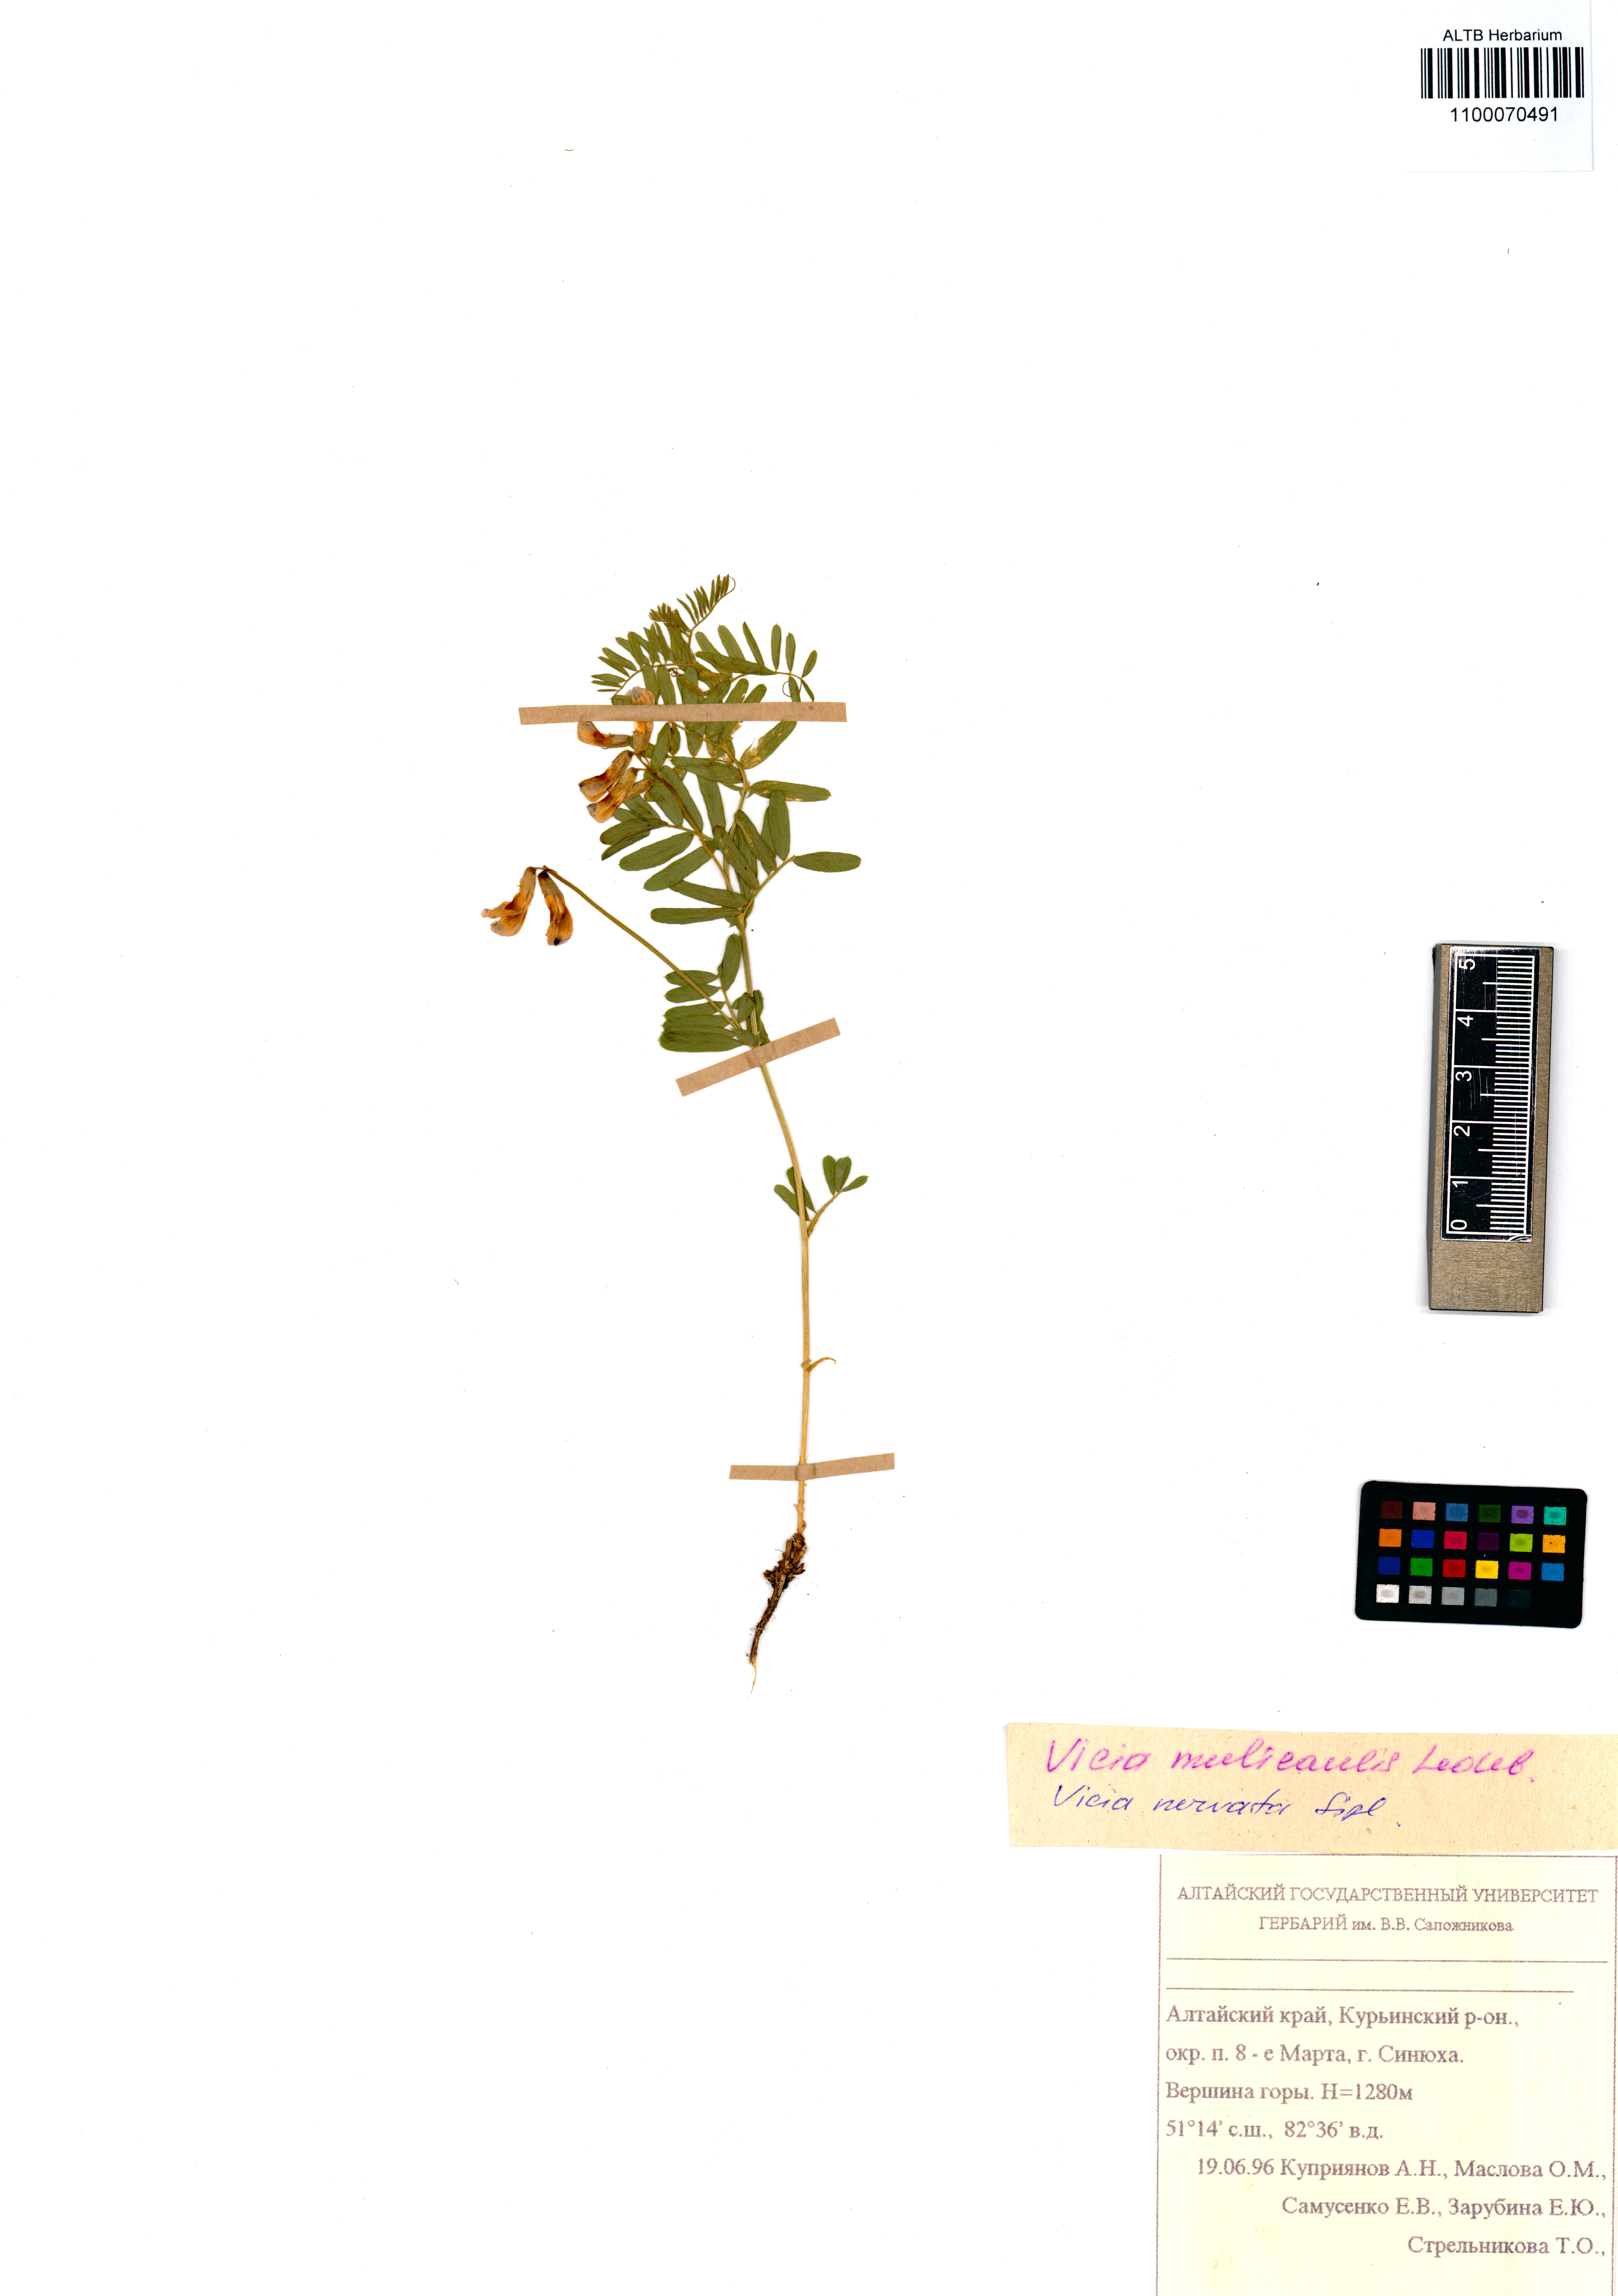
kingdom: Plantae
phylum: Tracheophyta
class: Magnoliopsida
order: Fabales
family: Fabaceae
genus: Vicia
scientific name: Vicia multicaulis
